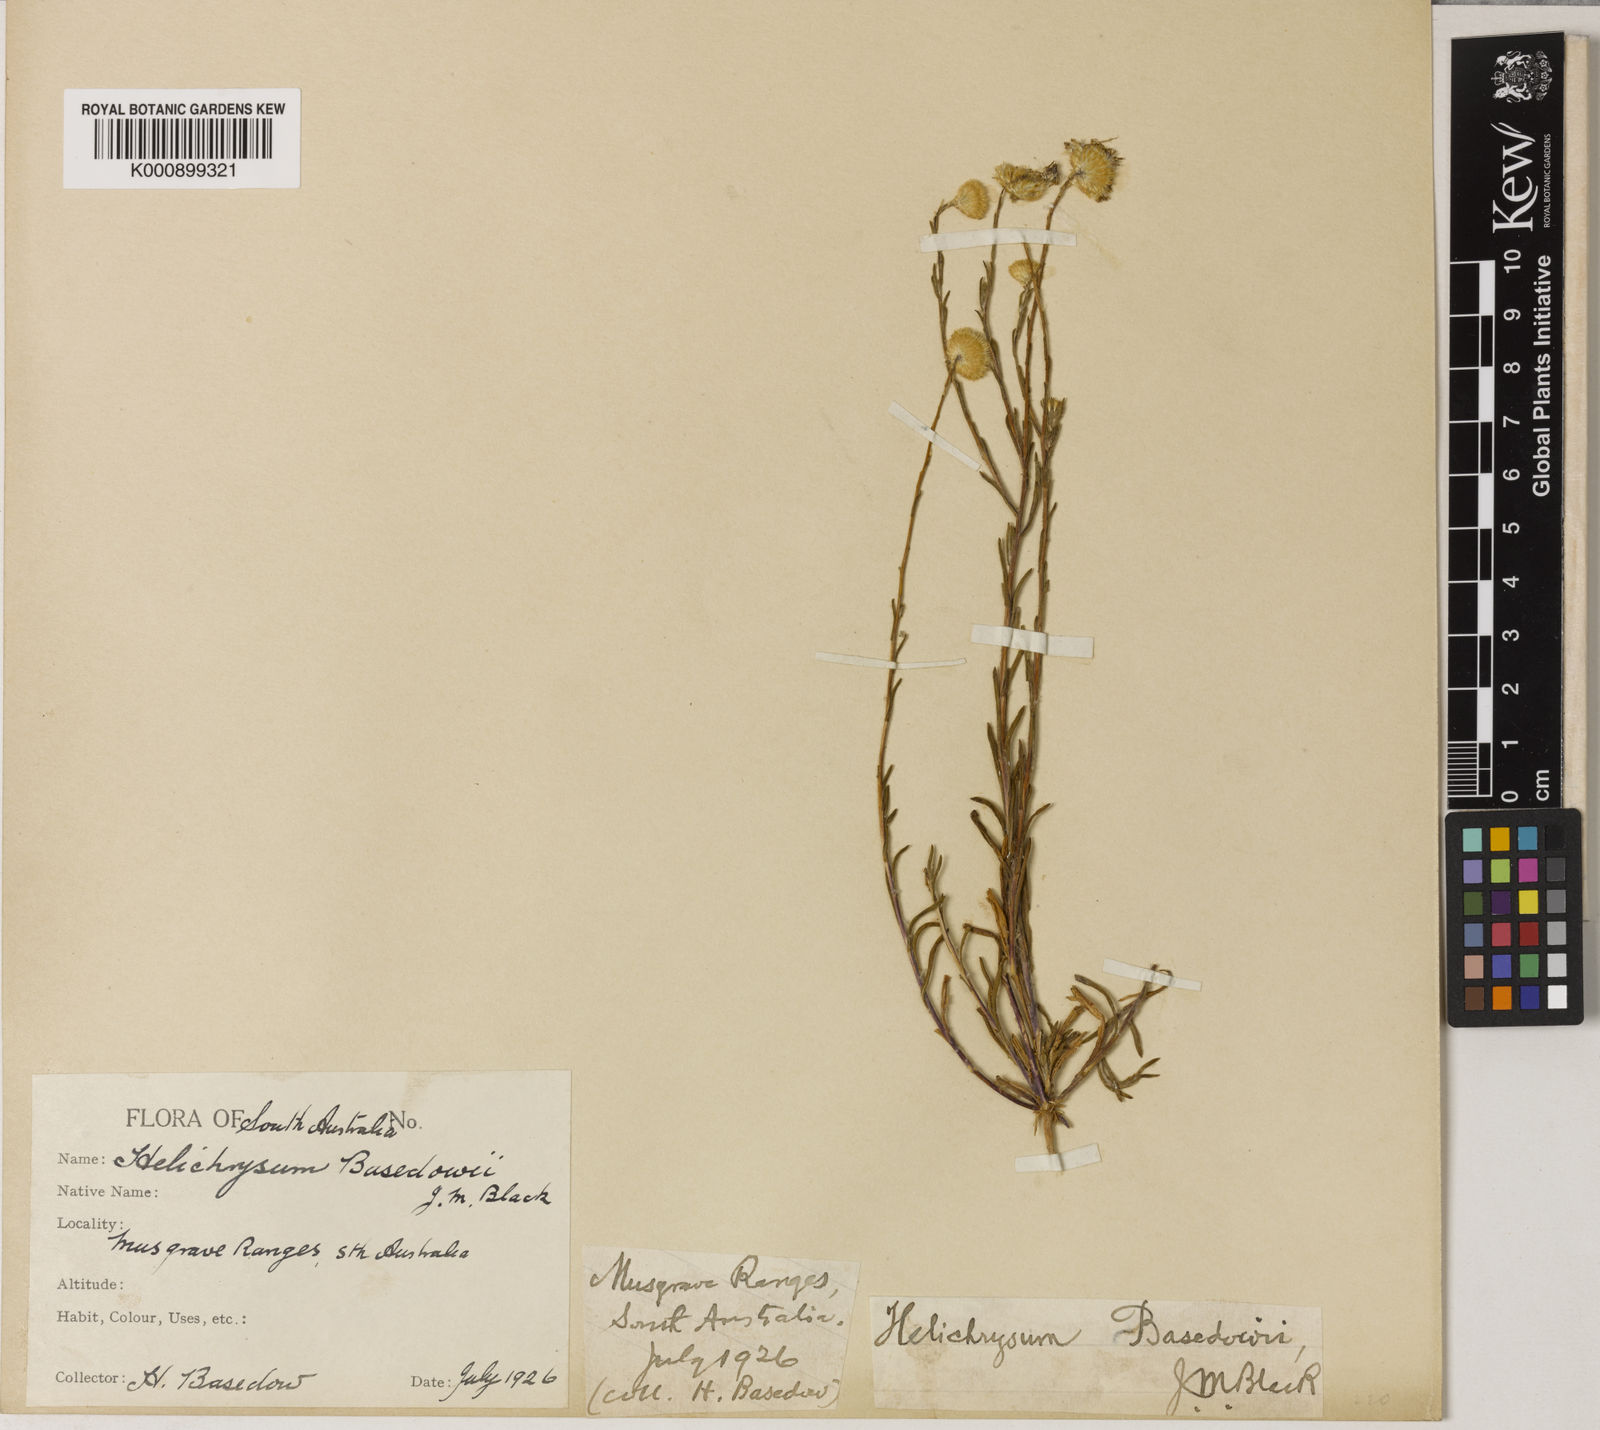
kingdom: Plantae
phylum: Tracheophyta
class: Magnoliopsida
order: Asterales
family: Asteraceae
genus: Leptorhynchos
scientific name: Leptorhynchos baileyi
